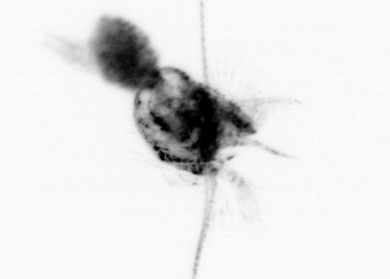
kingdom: Animalia
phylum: Arthropoda
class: Copepoda
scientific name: Copepoda
